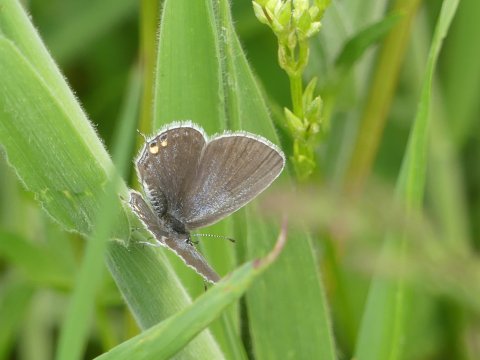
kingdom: Animalia
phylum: Arthropoda
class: Insecta
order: Lepidoptera
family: Lycaenidae
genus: Elkalyce
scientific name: Elkalyce comyntas
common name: Eastern Tailed-Blue
